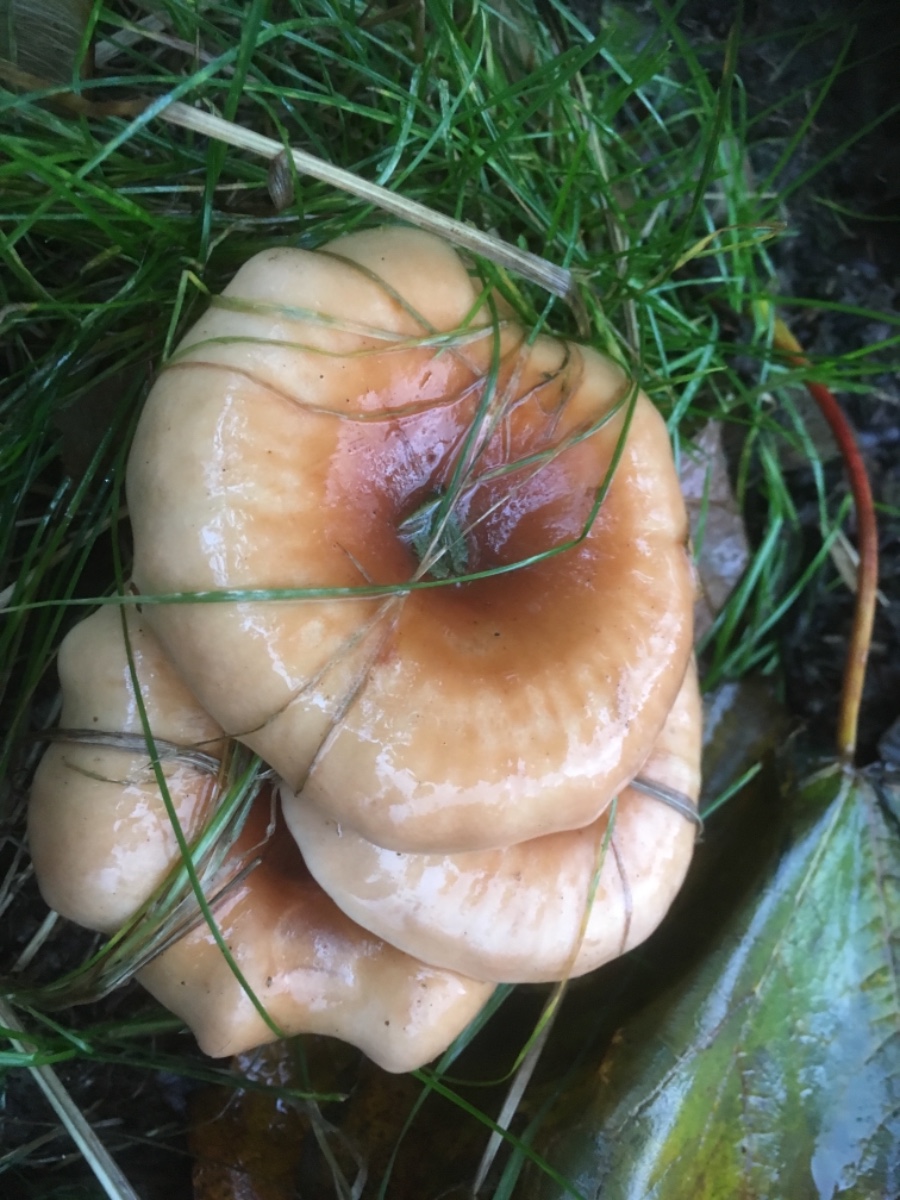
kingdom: Fungi
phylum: Basidiomycota
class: Agaricomycetes
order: Agaricales
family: Tricholomataceae
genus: Paralepista
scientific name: Paralepista
